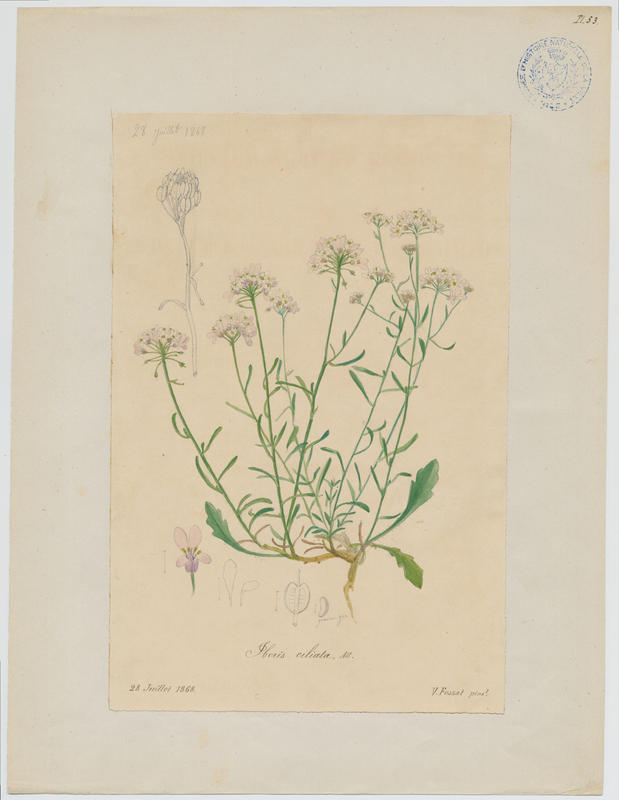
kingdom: Plantae
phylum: Tracheophyta
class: Magnoliopsida
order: Brassicales
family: Brassicaceae
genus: Iberis
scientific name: Iberis ciliata
